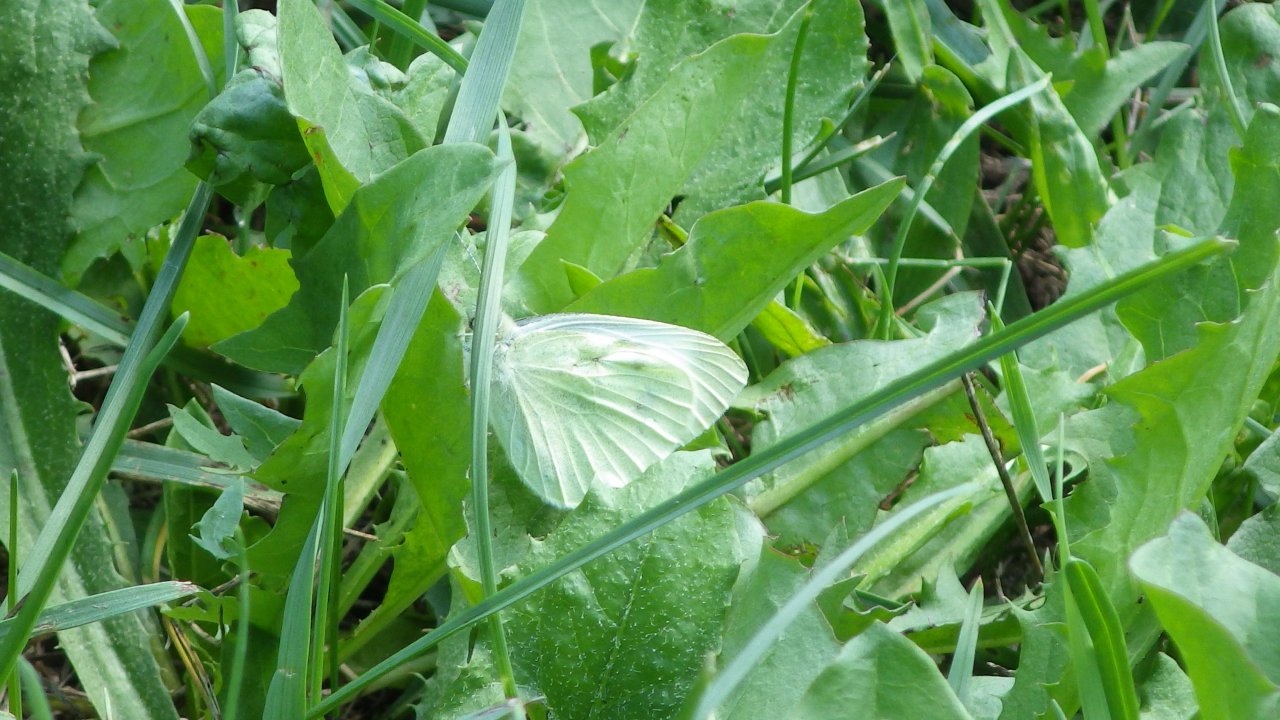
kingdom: Animalia
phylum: Arthropoda
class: Insecta
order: Lepidoptera
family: Pieridae
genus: Pieris
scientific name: Pieris rapae
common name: Cabbage White
